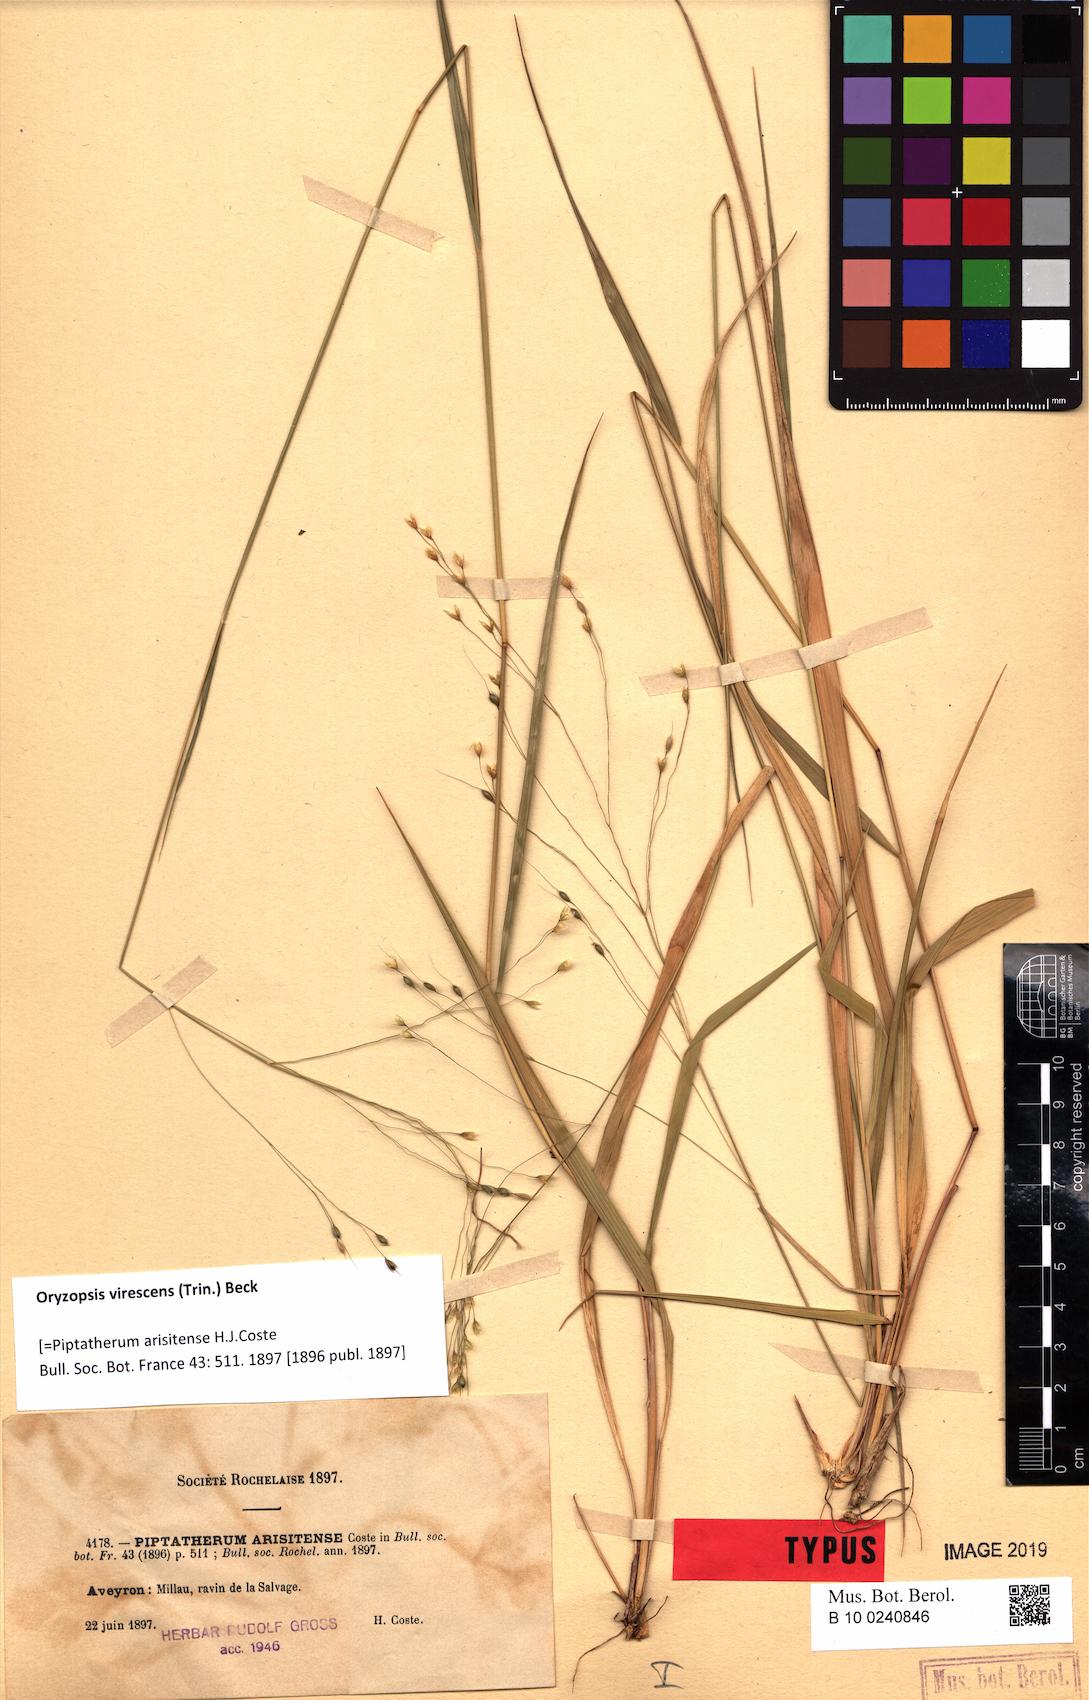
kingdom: Plantae
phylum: Tracheophyta
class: Liliopsida
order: Poales
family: Poaceae
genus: Achnatherum
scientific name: Achnatherum virescens
